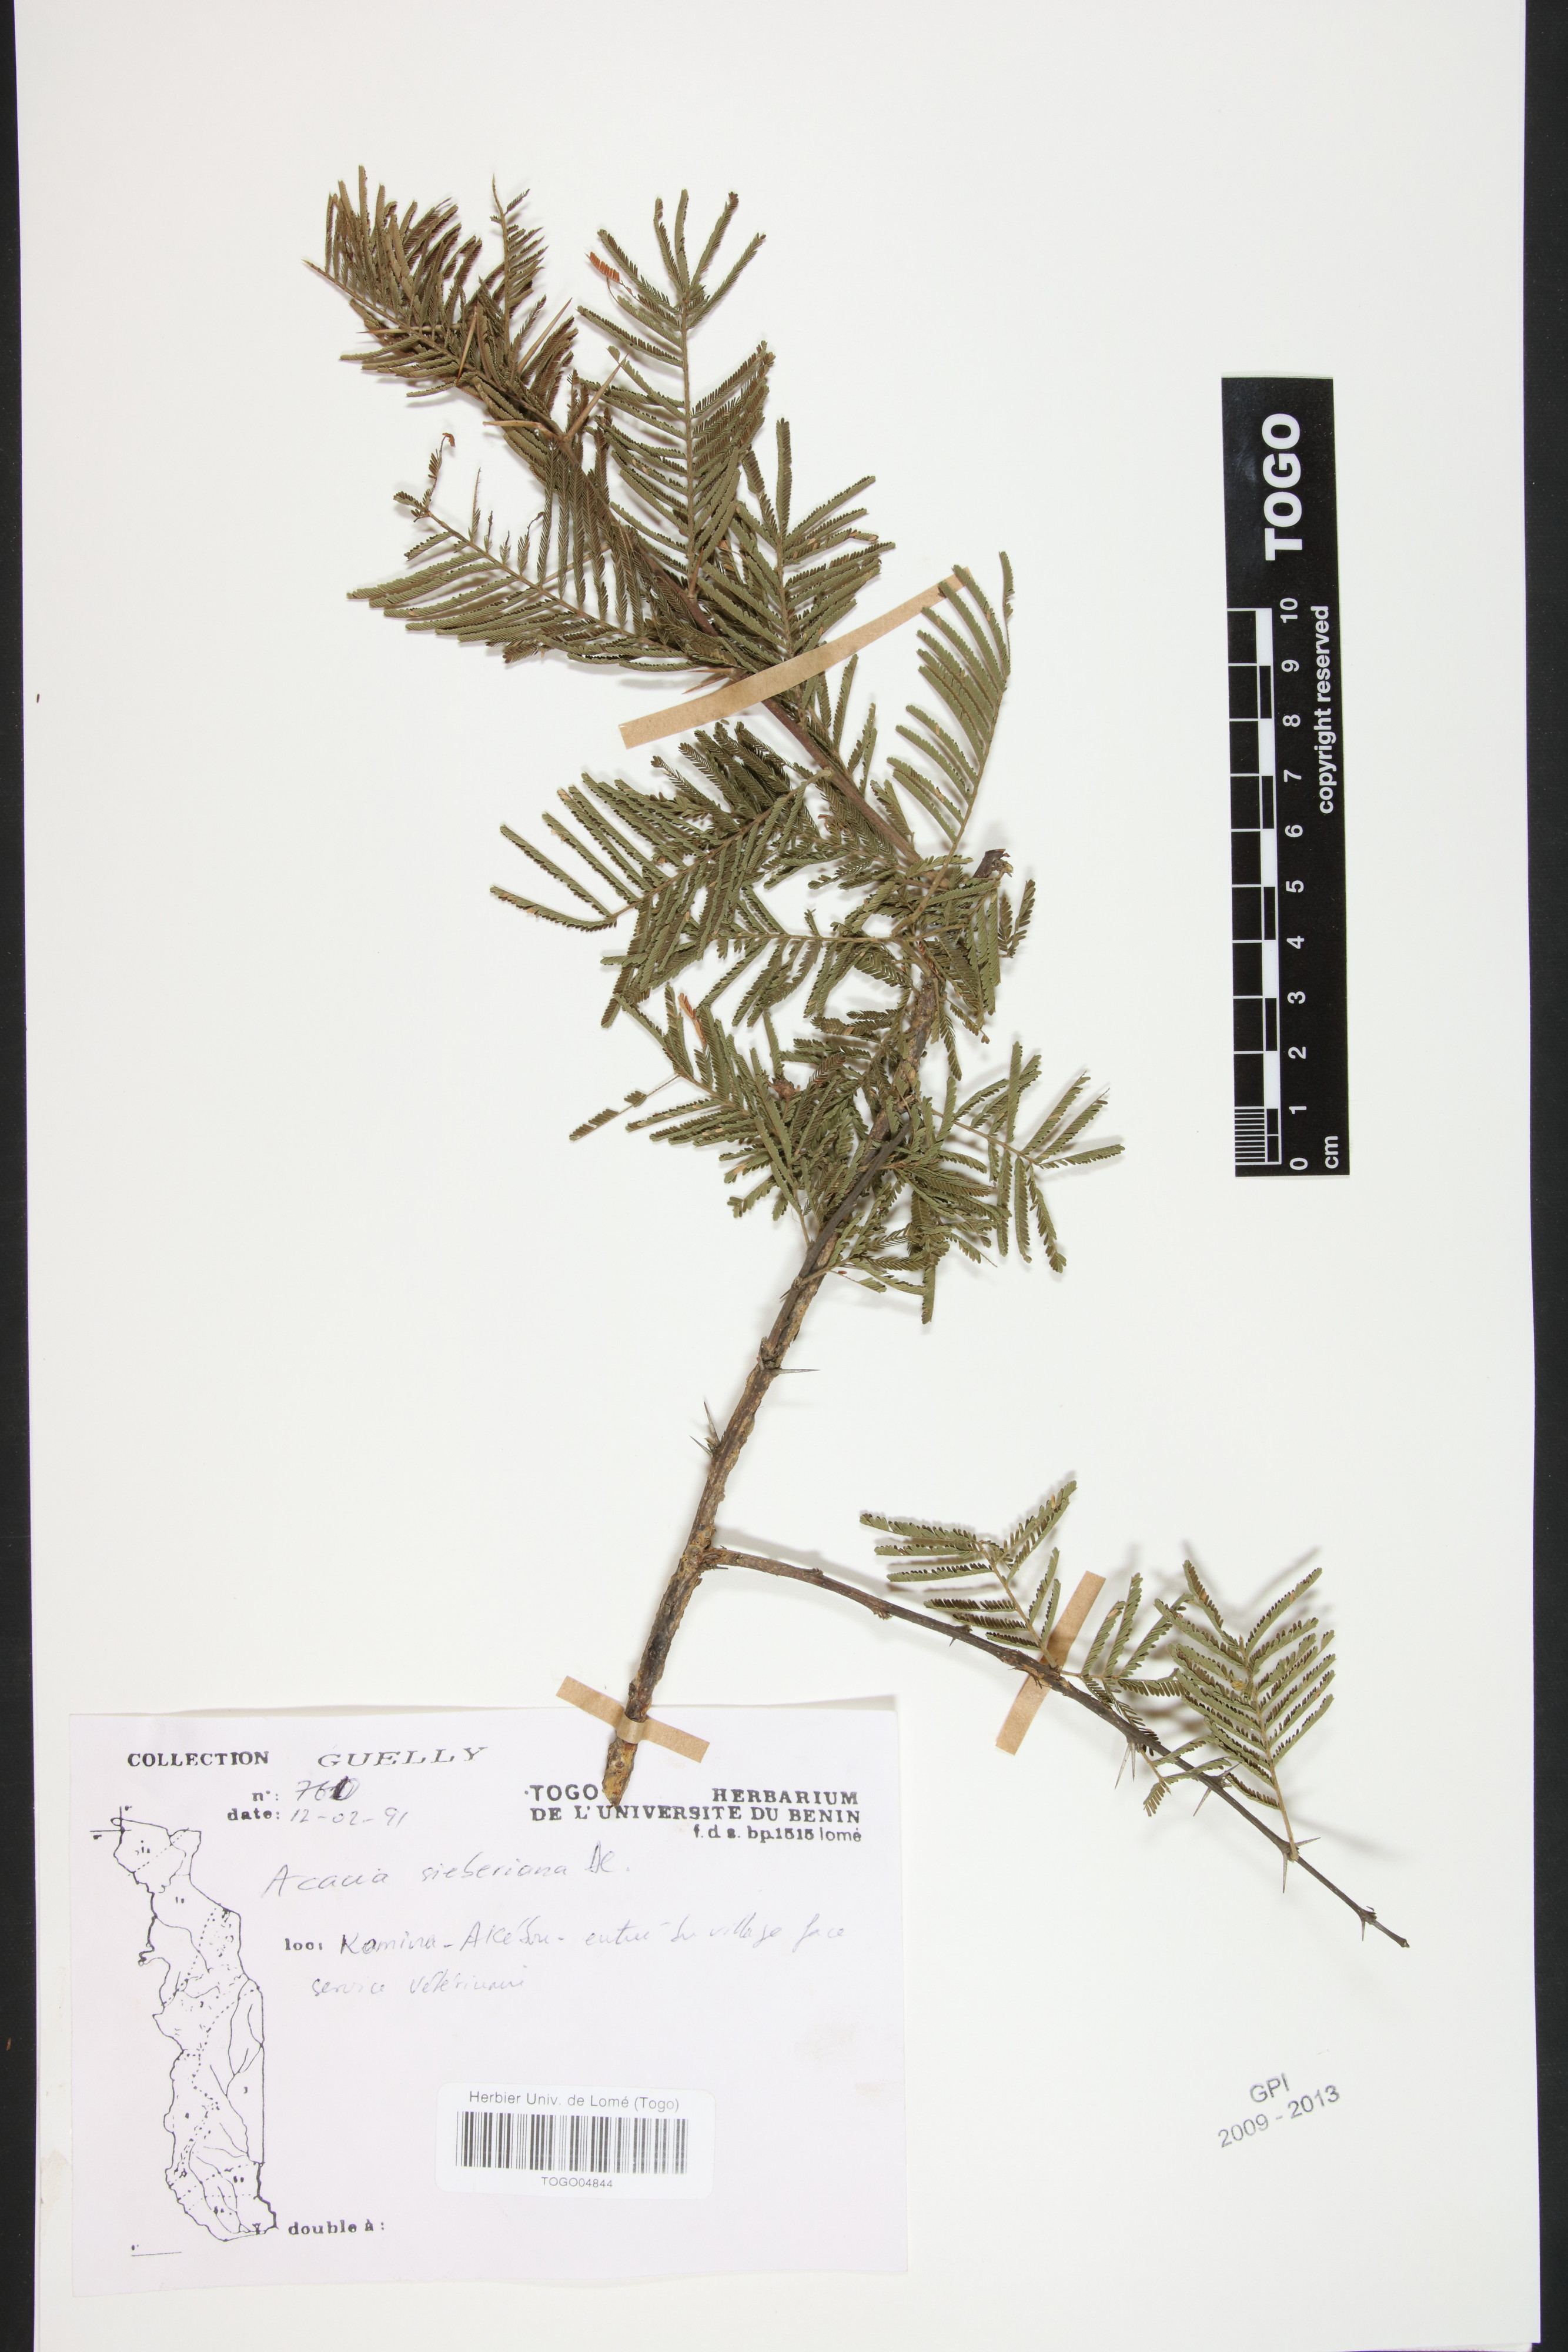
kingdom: Plantae
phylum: Tracheophyta
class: Magnoliopsida
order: Fabales
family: Fabaceae
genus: Vachellia
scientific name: Vachellia sieberiana
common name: Flat-topped thorn
